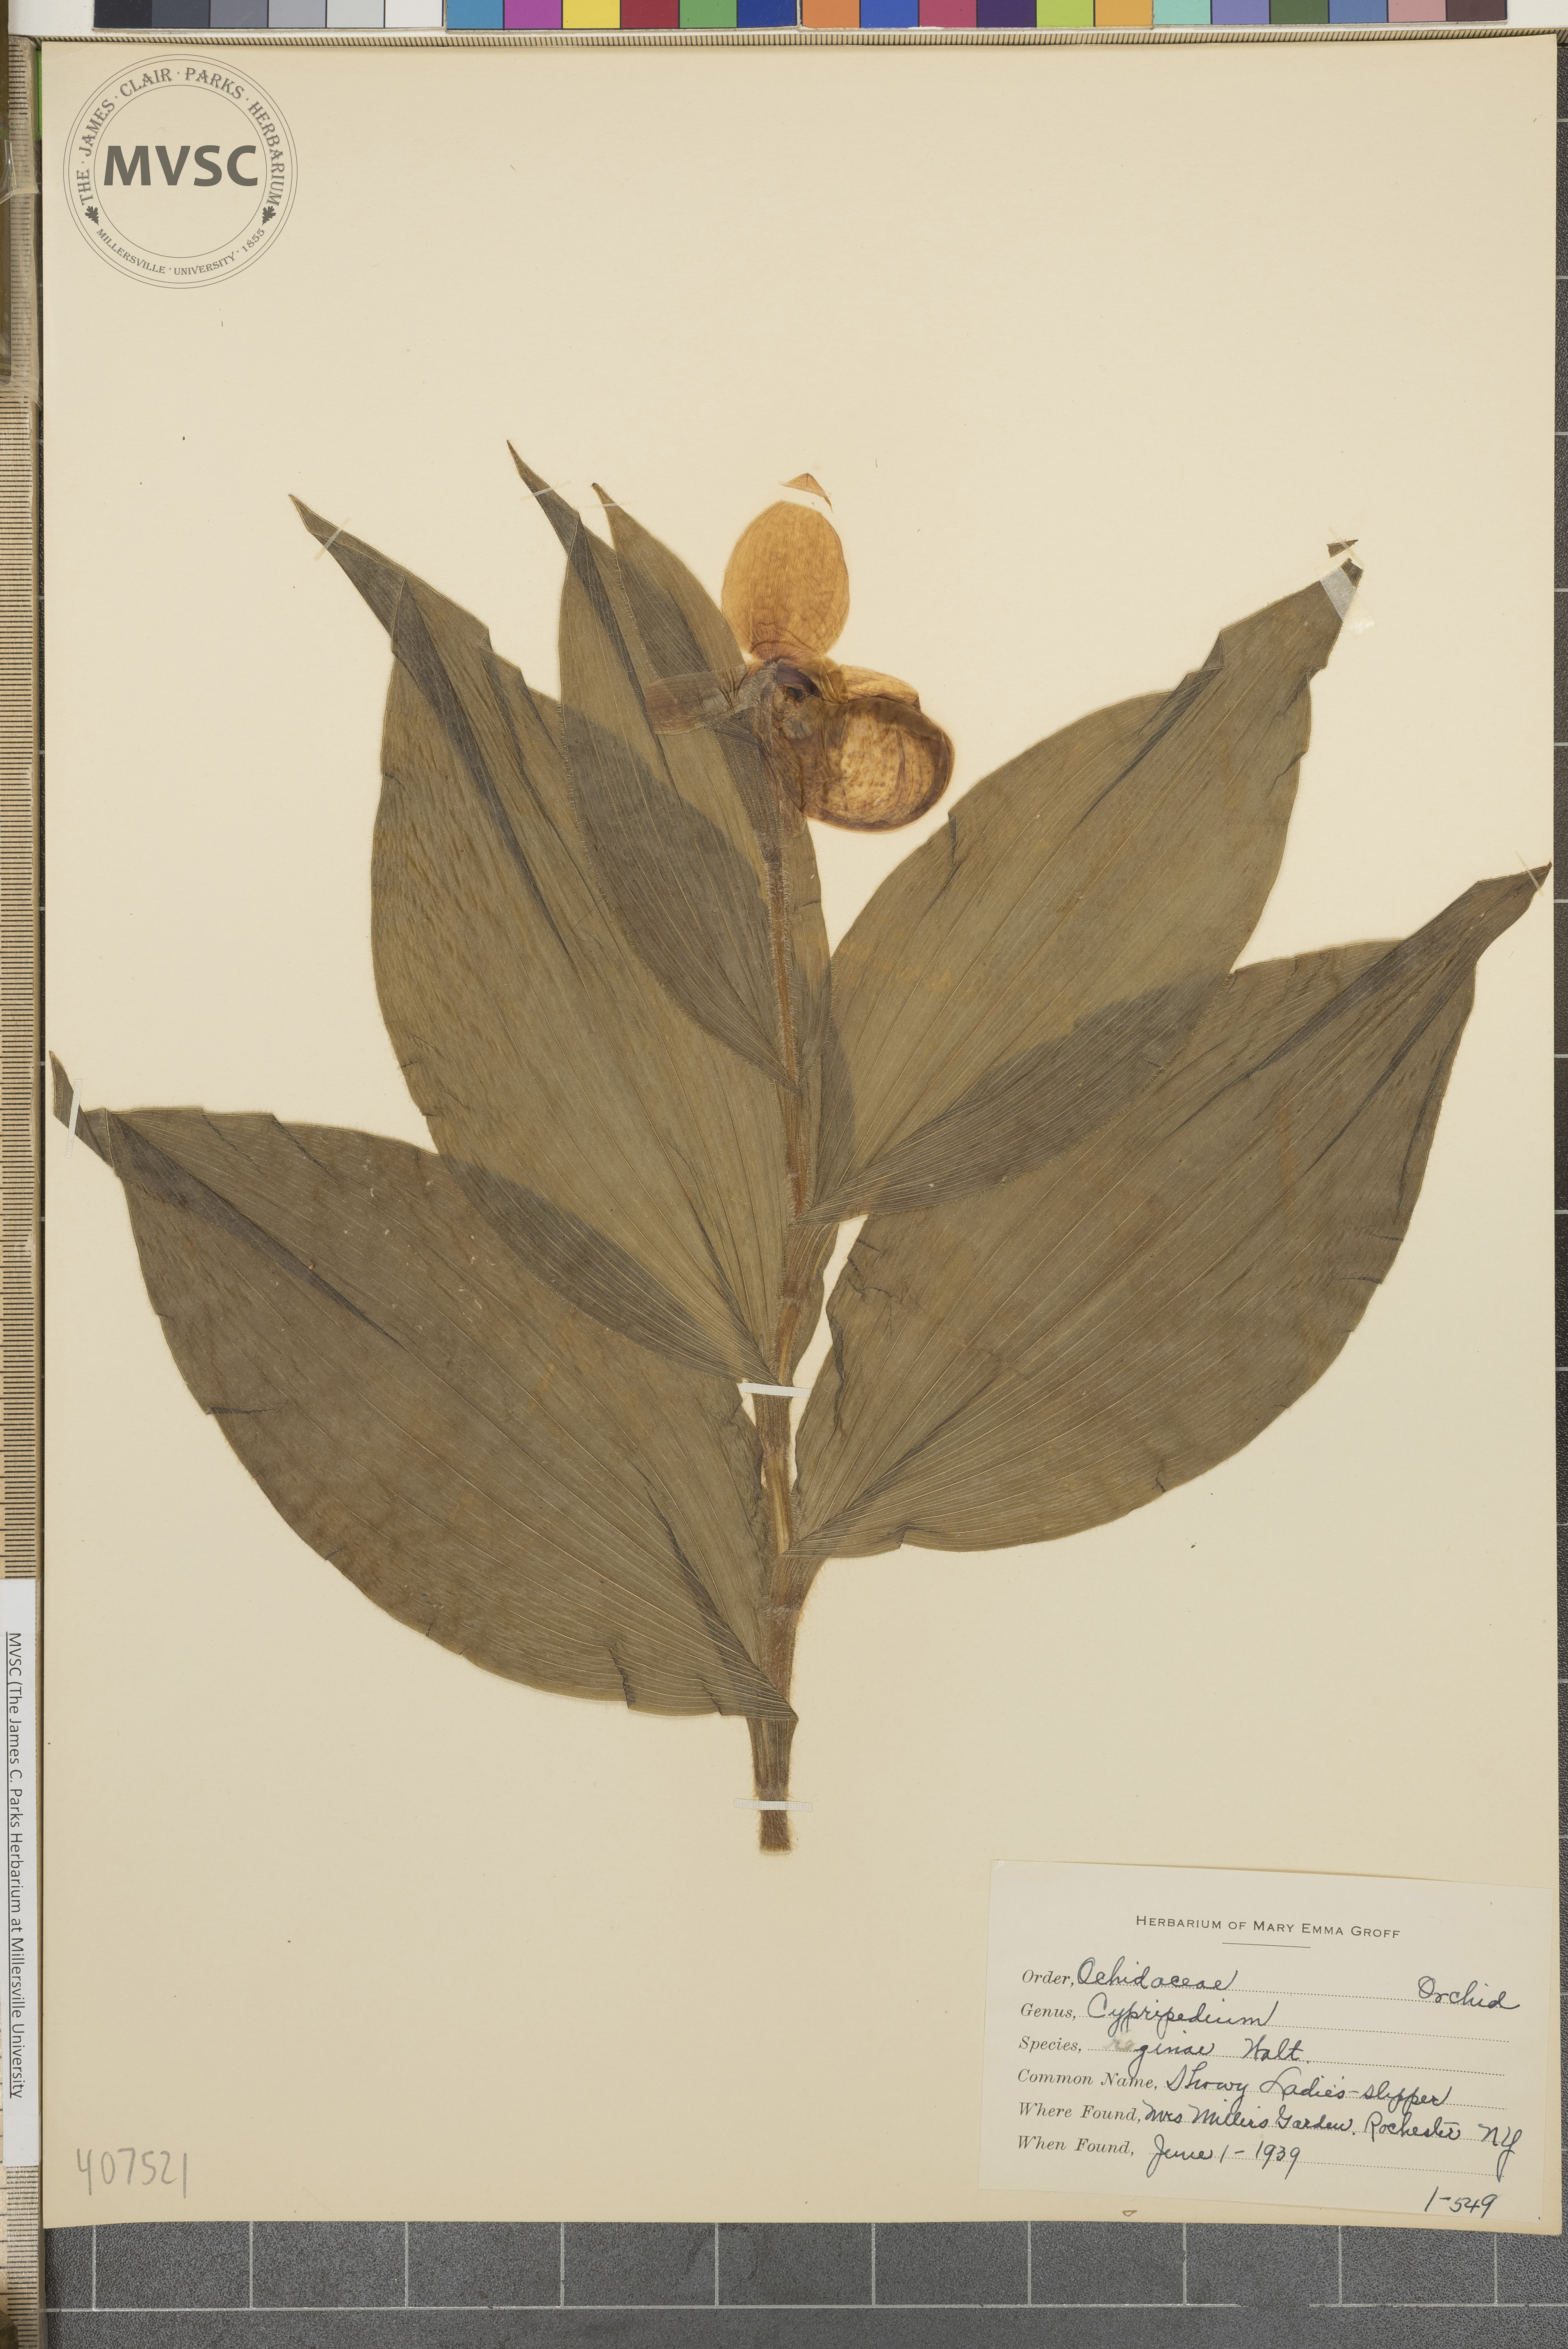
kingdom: Plantae
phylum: Tracheophyta
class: Liliopsida
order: Asparagales
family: Orchidaceae
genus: Cypripedium
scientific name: Cypripedium reginae
